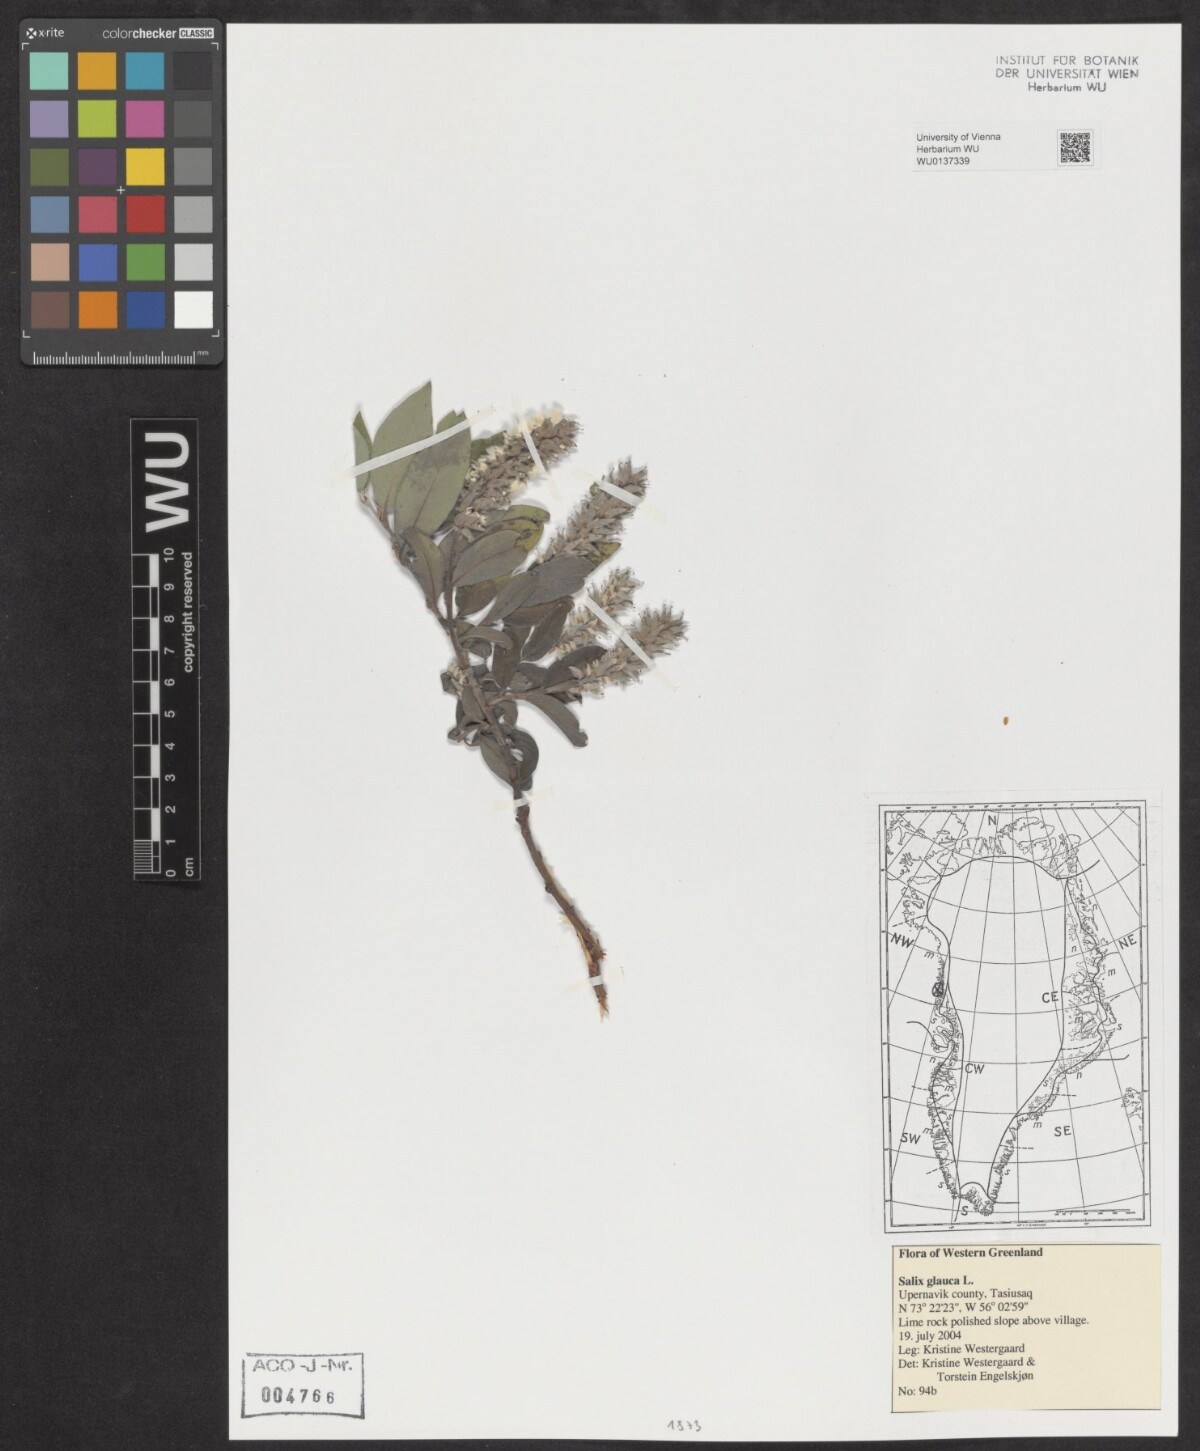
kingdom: Plantae
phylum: Tracheophyta
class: Magnoliopsida
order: Malpighiales
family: Salicaceae
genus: Salix
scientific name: Salix glauca
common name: Glaucous willow
